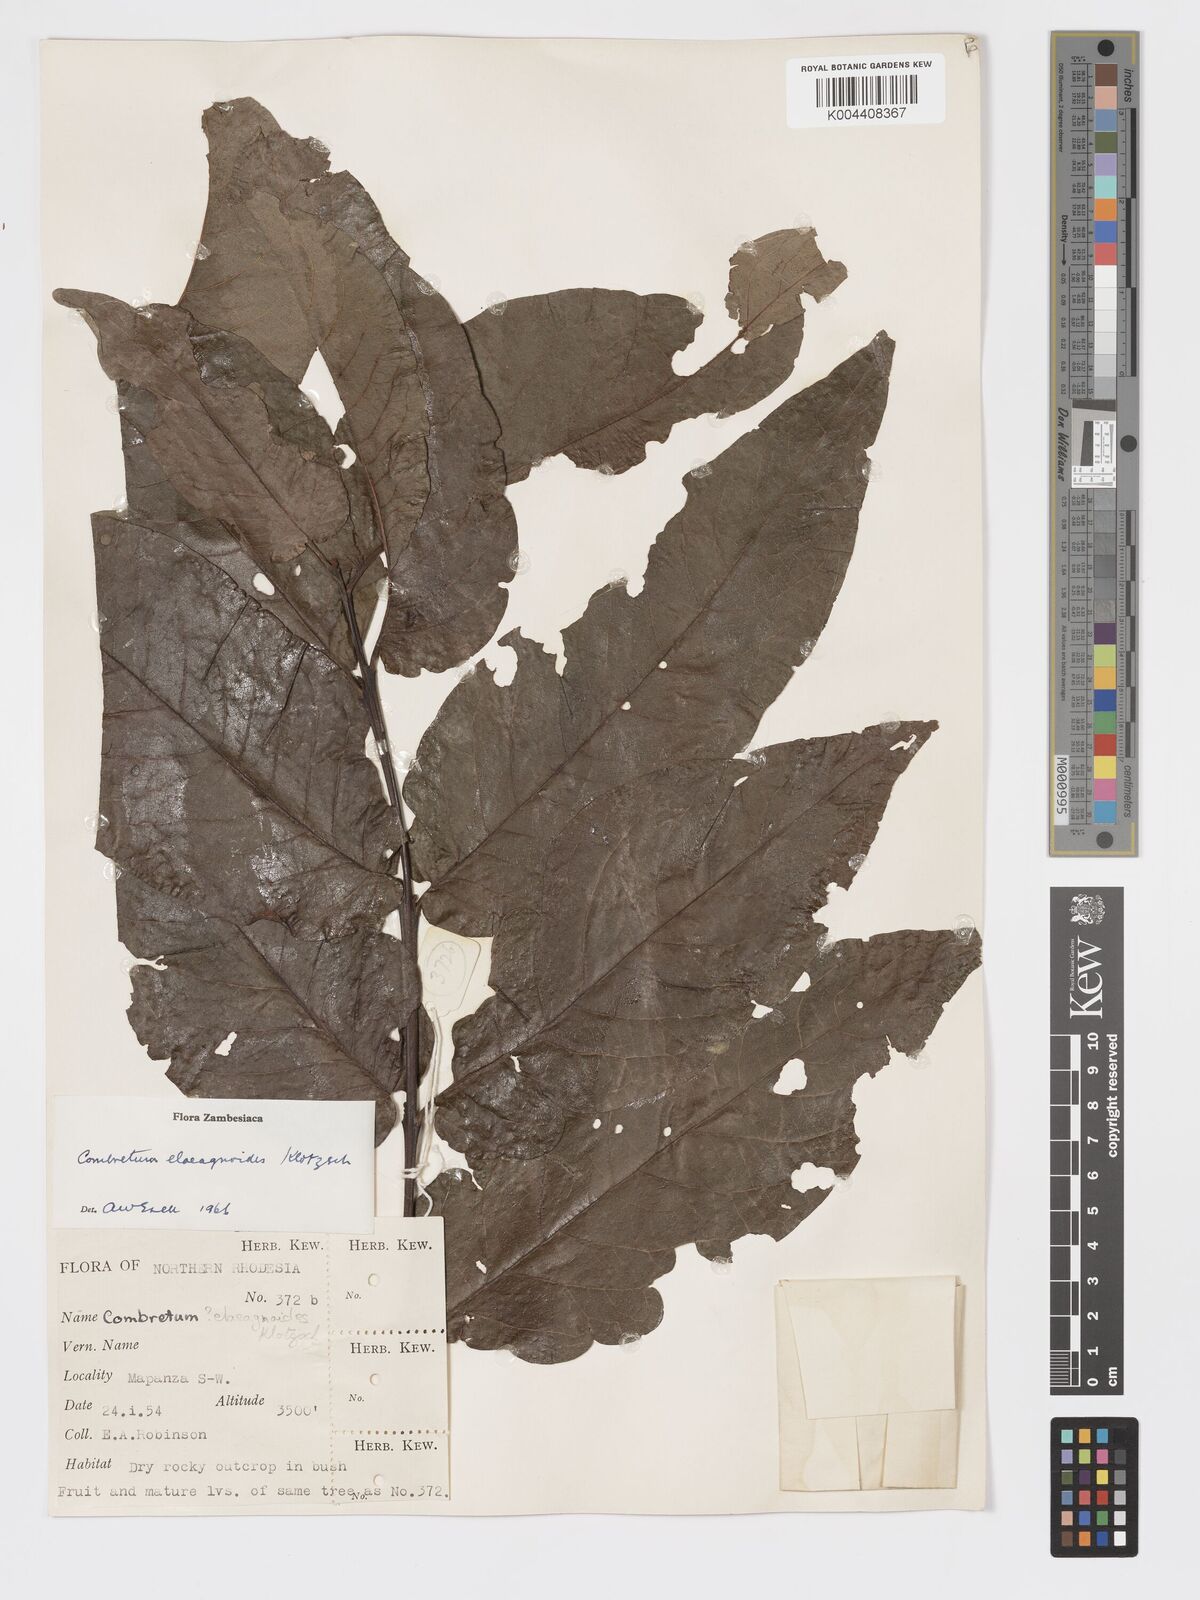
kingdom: Plantae
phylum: Tracheophyta
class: Magnoliopsida
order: Myrtales
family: Combretaceae
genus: Combretum
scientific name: Combretum elaeagnoides
